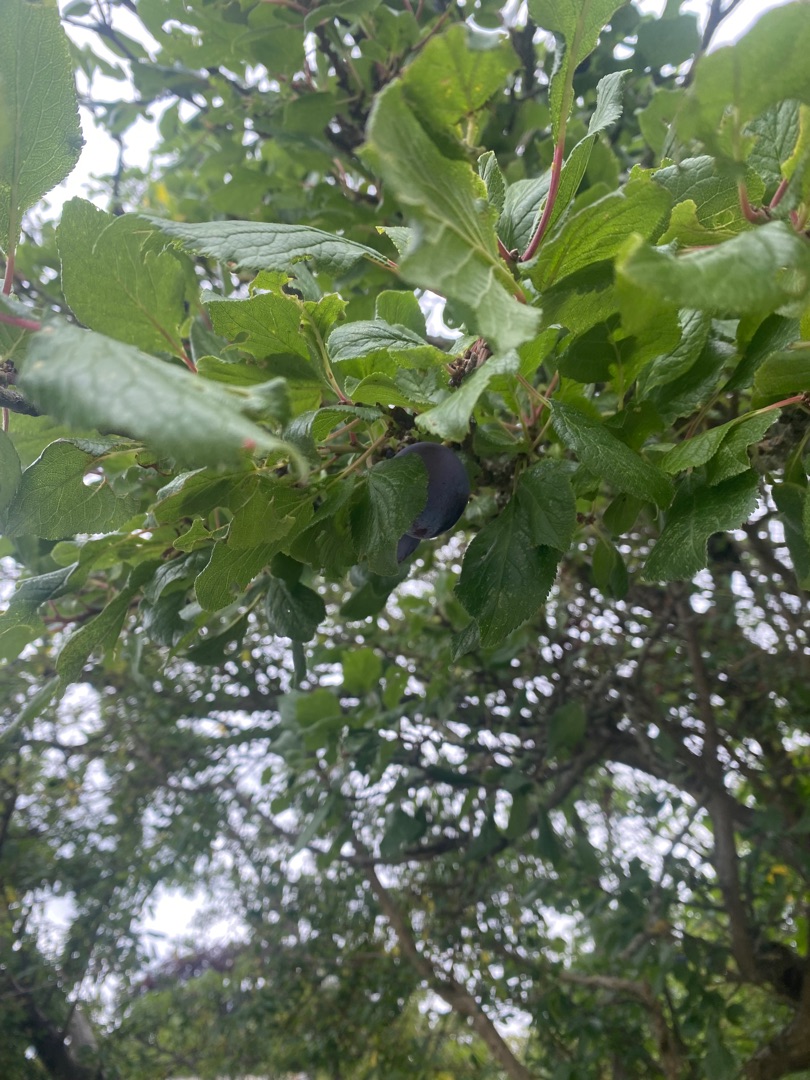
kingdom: Plantae
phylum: Tracheophyta
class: Magnoliopsida
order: Rosales
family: Rosaceae
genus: Prunus
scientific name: Prunus spinosa
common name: Slåen
